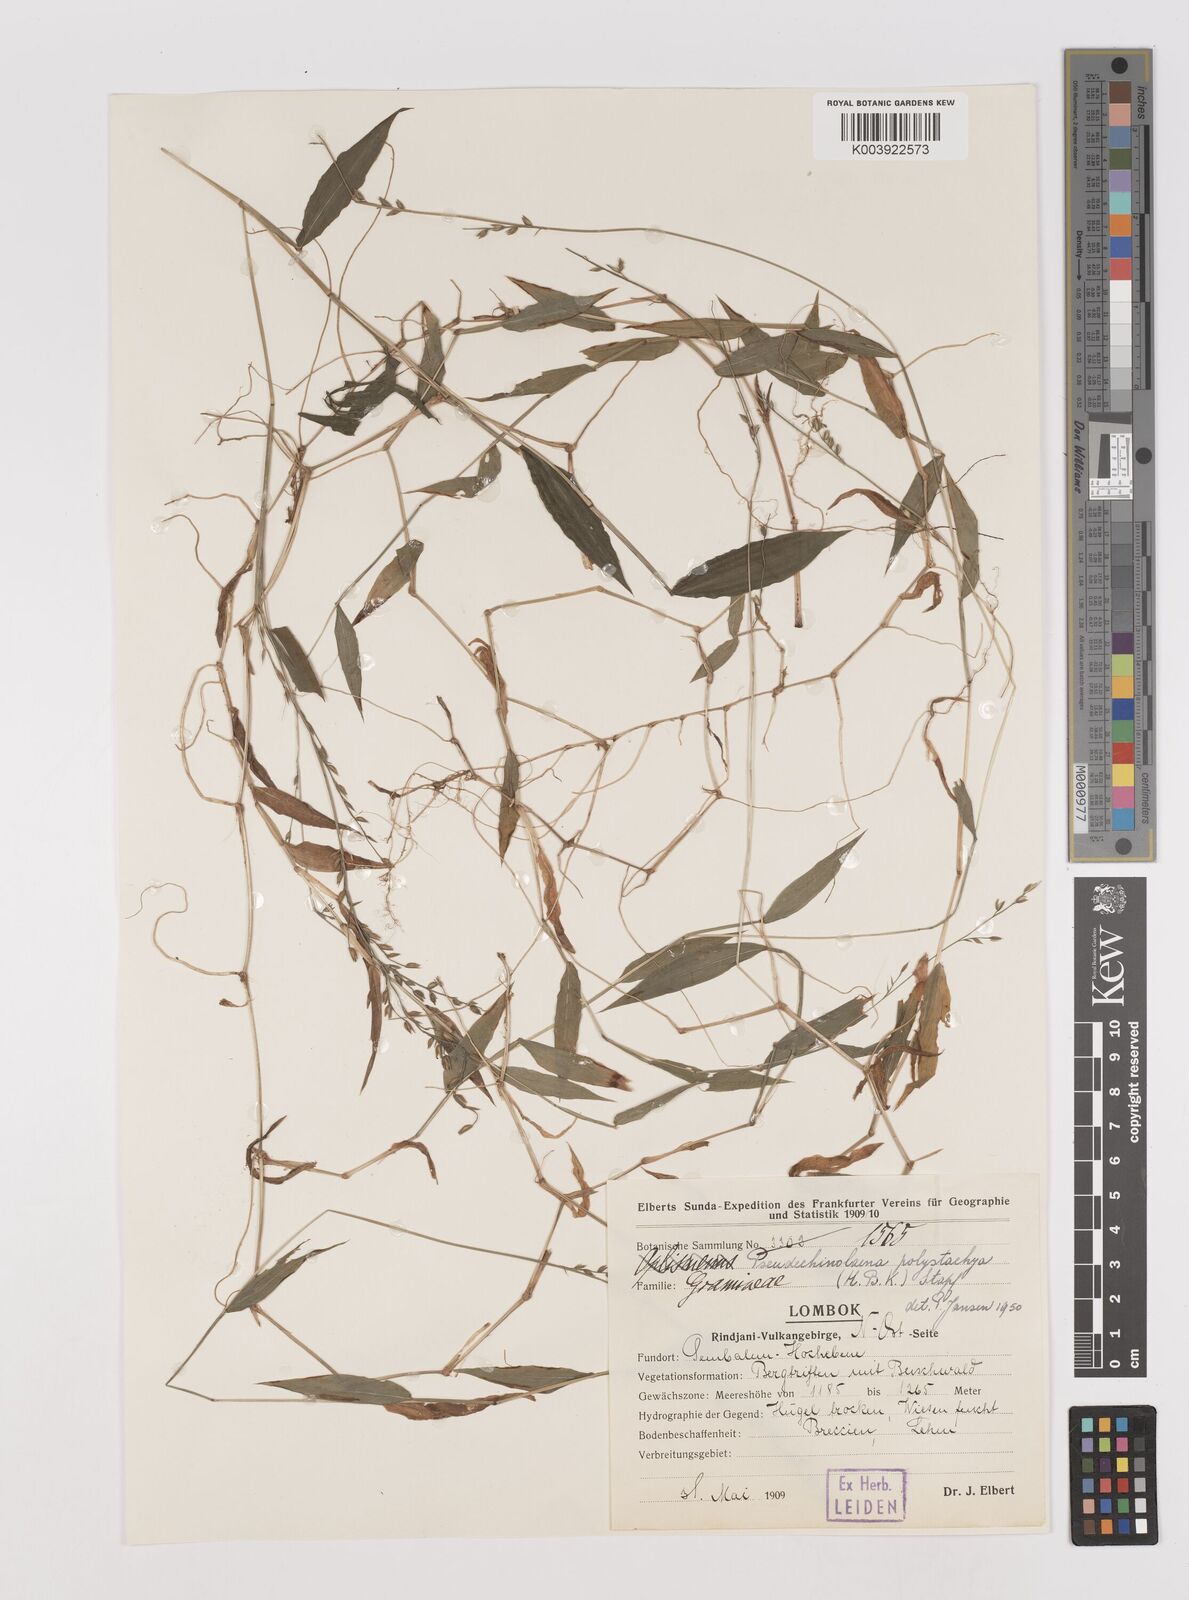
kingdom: Plantae
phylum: Tracheophyta
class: Liliopsida
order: Poales
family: Poaceae
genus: Pseudechinolaena
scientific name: Pseudechinolaena polystachya
